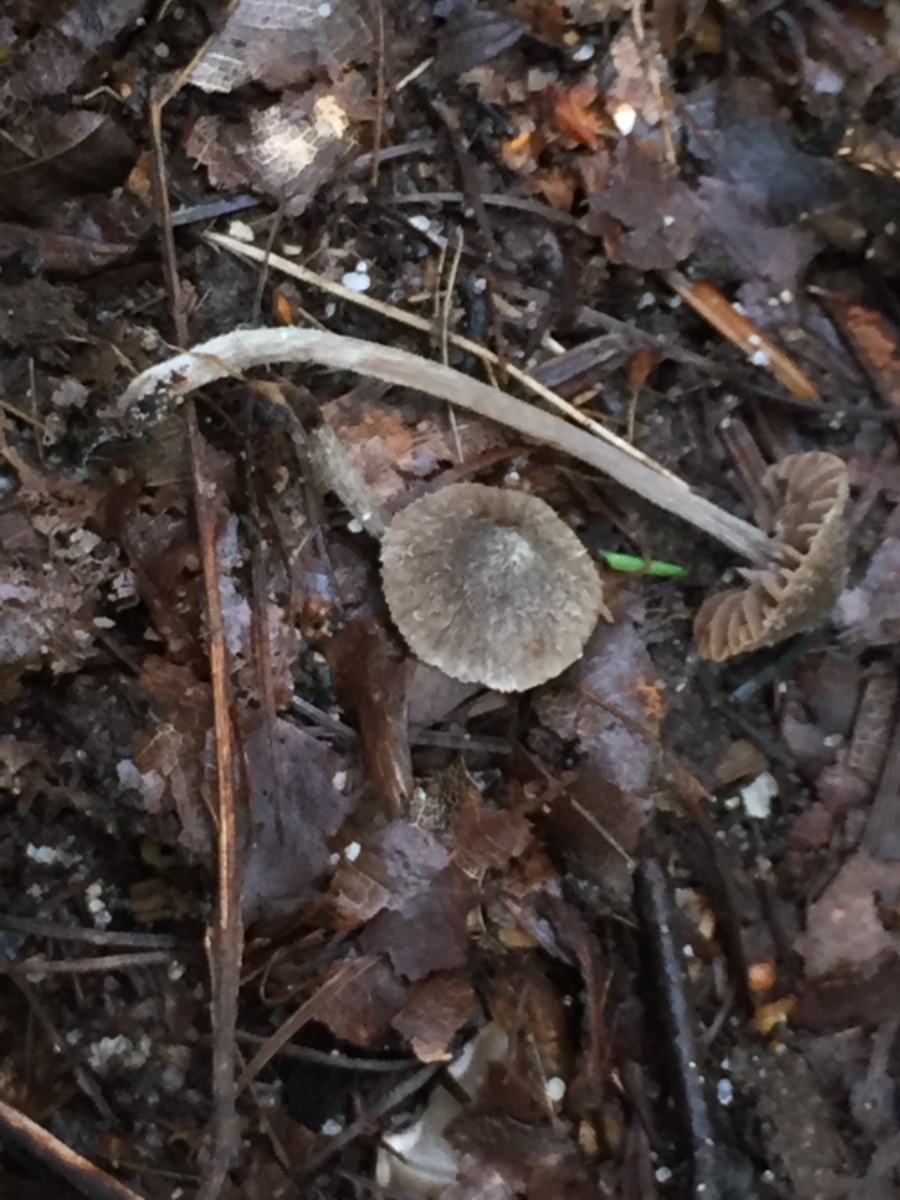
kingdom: Fungi
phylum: Basidiomycota
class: Agaricomycetes
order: Agaricales
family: Entolomataceae
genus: Entoloma
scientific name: Entoloma
